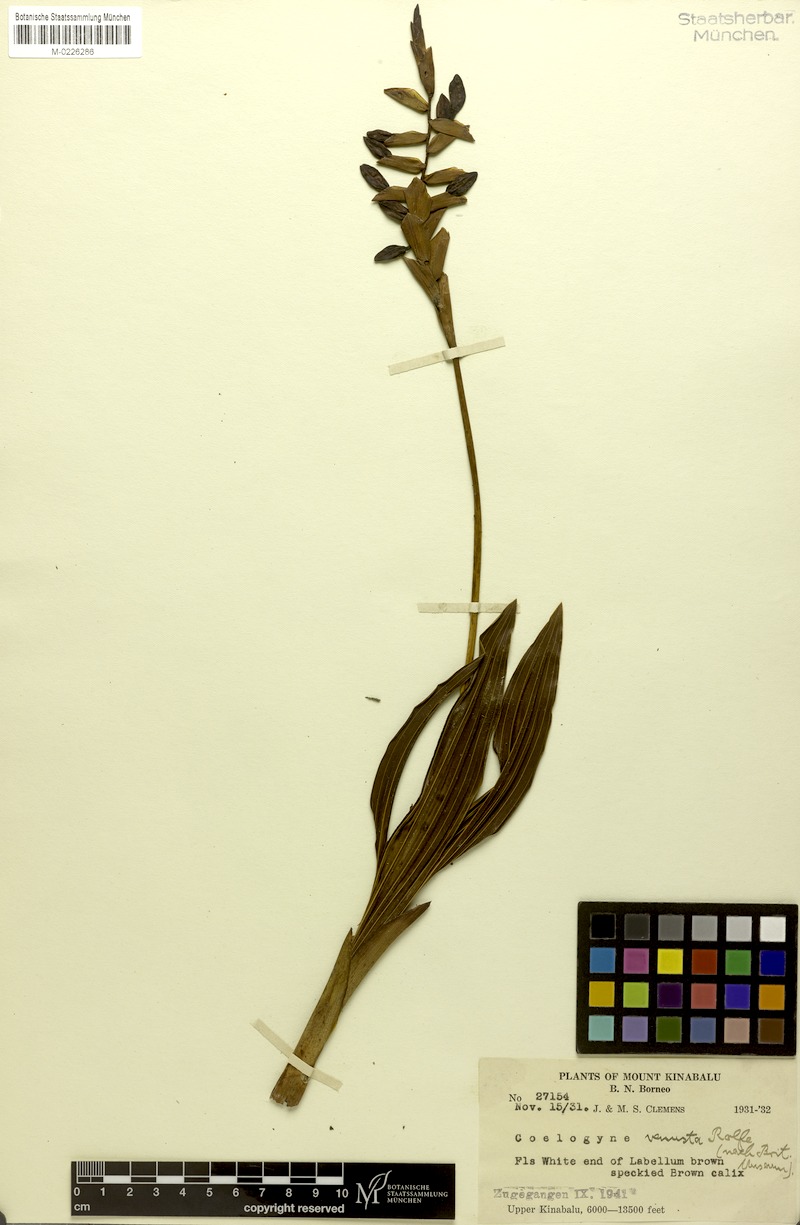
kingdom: Plantae
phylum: Tracheophyta
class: Liliopsida
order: Asparagales
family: Orchidaceae
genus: Coelogyne
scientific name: Coelogyne venusta
